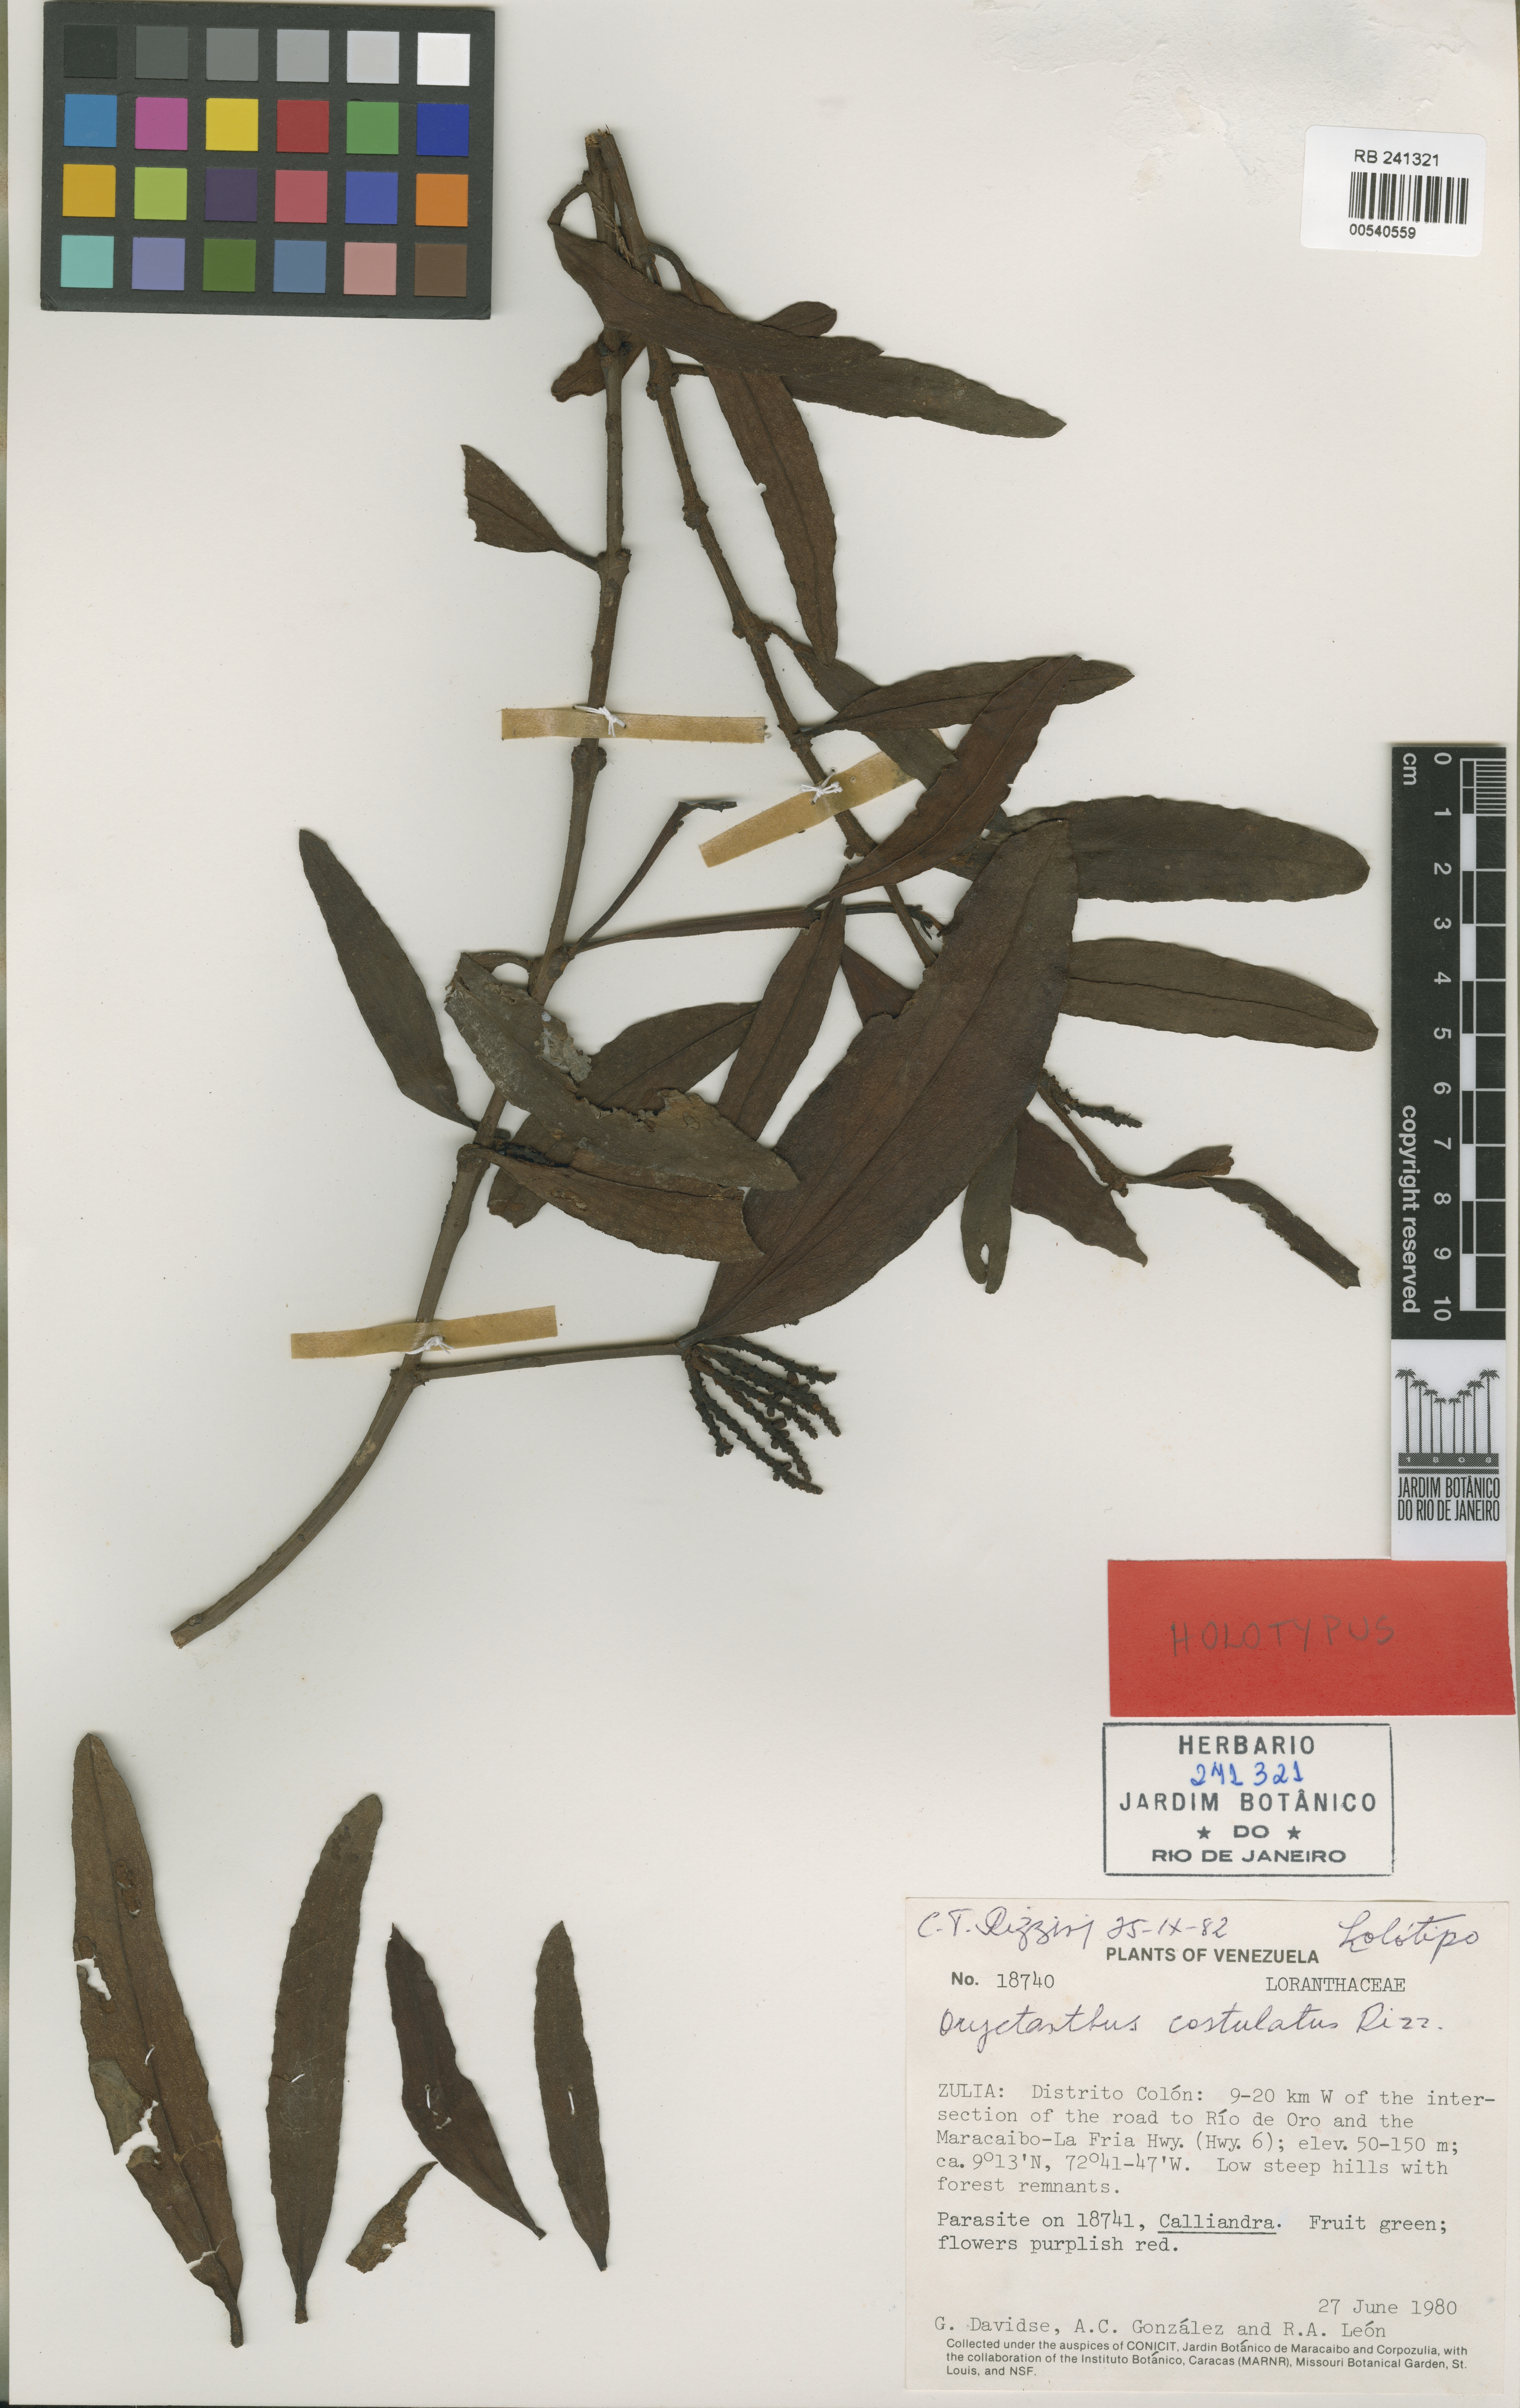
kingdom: Plantae
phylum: Tracheophyta
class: Magnoliopsida
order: Santalales
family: Loranthaceae
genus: Oryctanthus
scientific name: Oryctanthus costulatus
